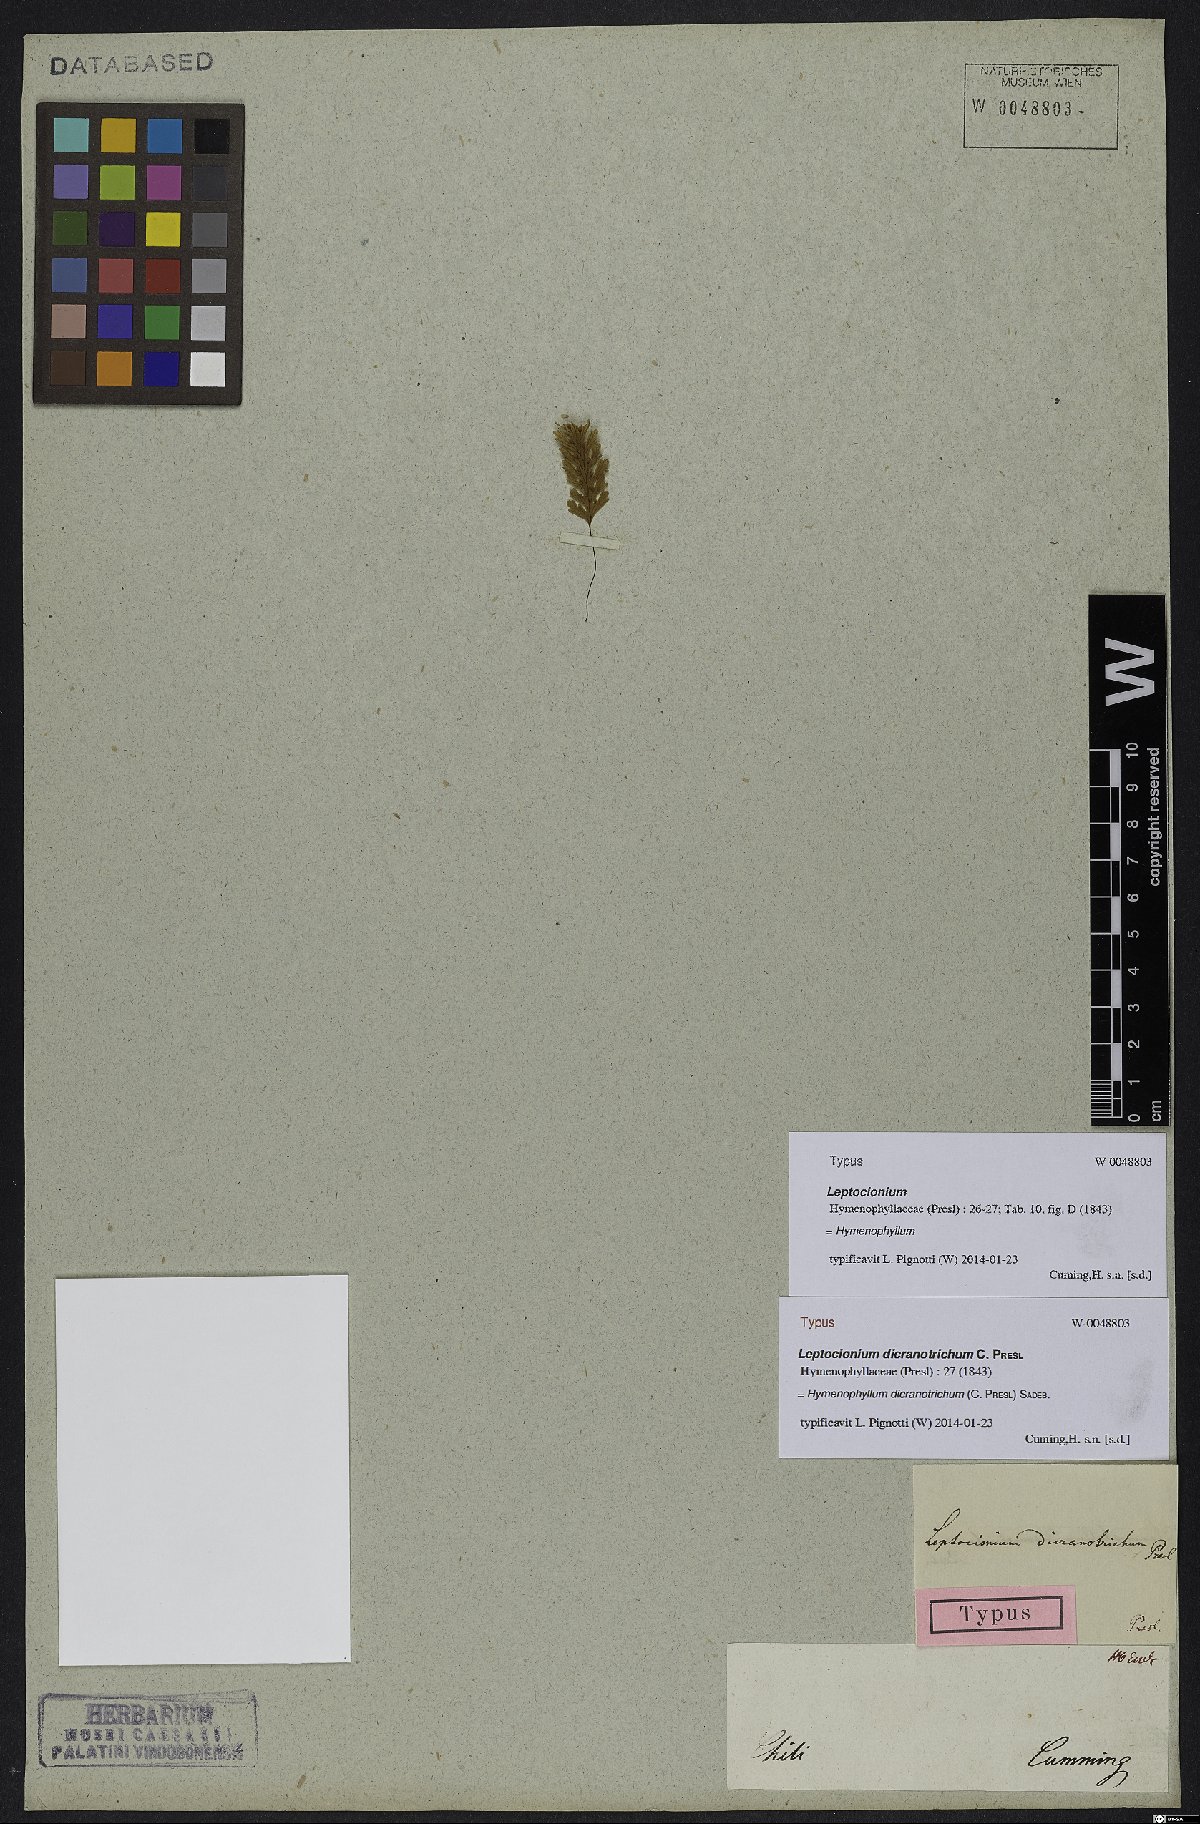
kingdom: Plantae
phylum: Tracheophyta
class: Polypodiopsida
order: Hymenophyllales
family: Hymenophyllaceae
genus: Hymenophyllum
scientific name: Hymenophyllum dicranotrichum
